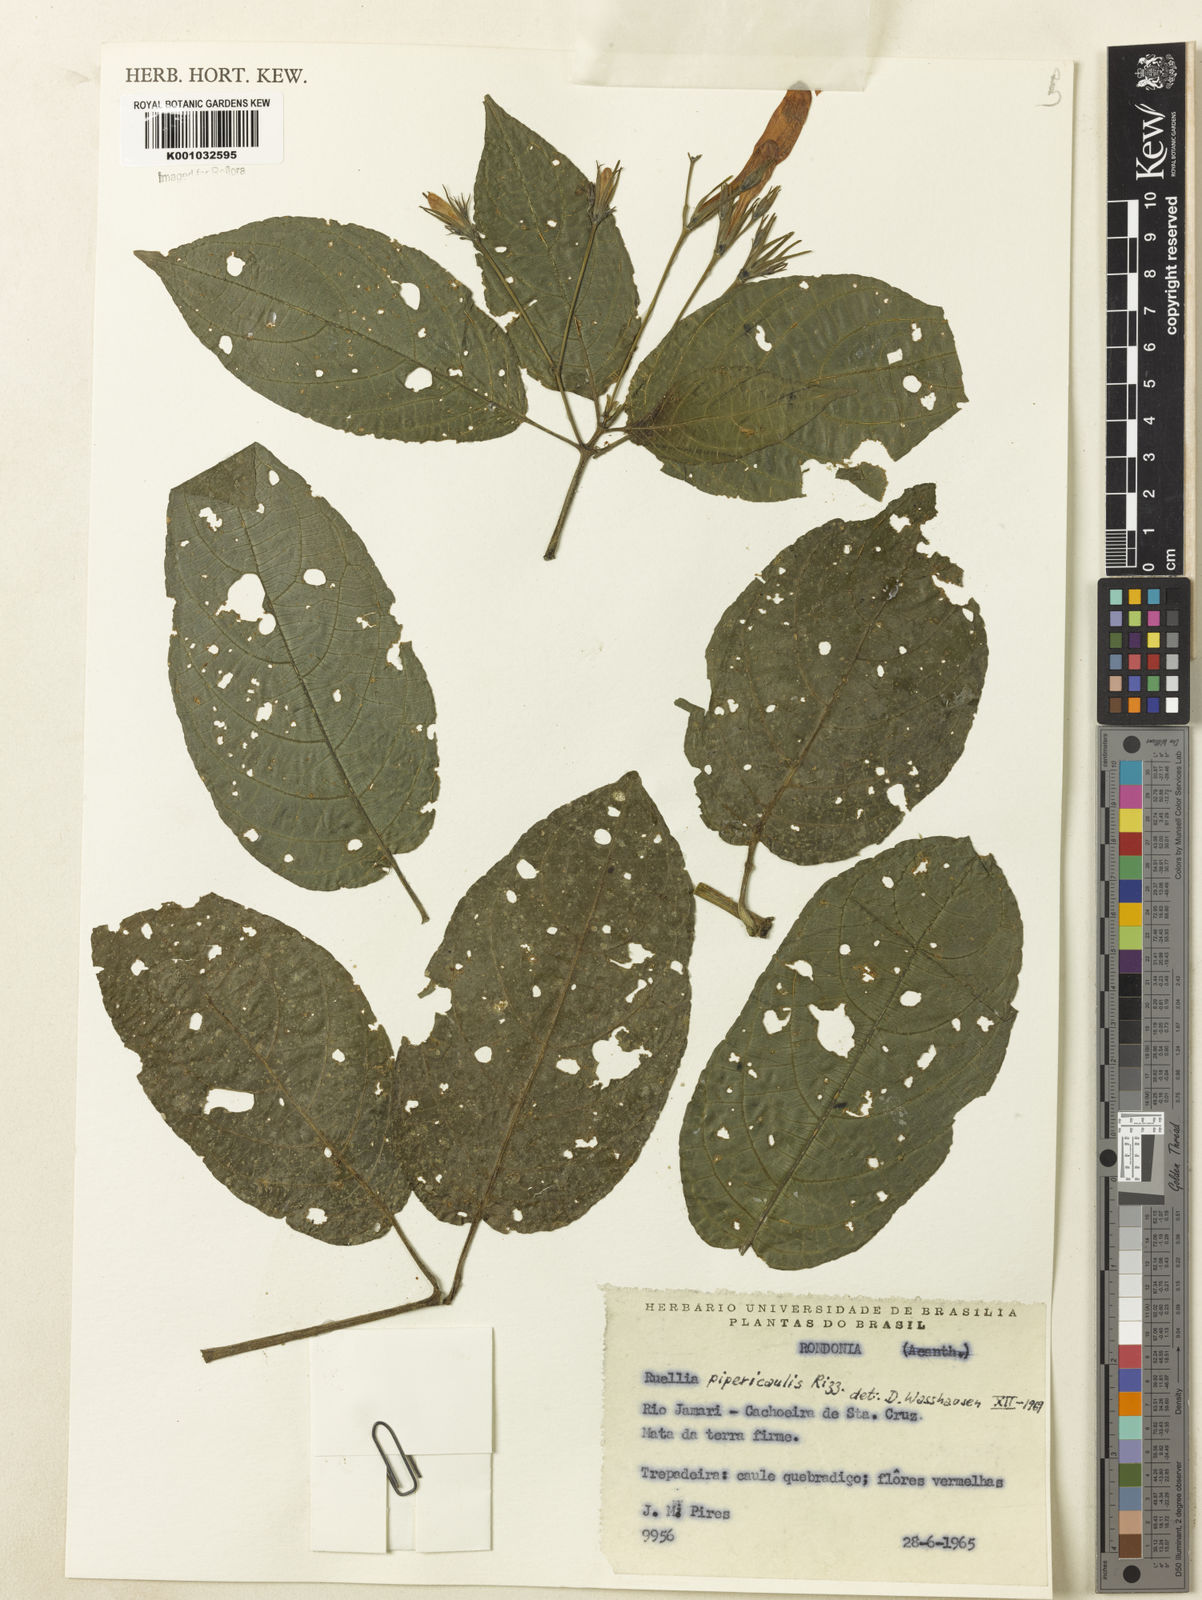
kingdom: Plantae
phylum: Tracheophyta
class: Magnoliopsida
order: Lamiales
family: Acanthaceae
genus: Ruellia
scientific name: Ruellia inflata
